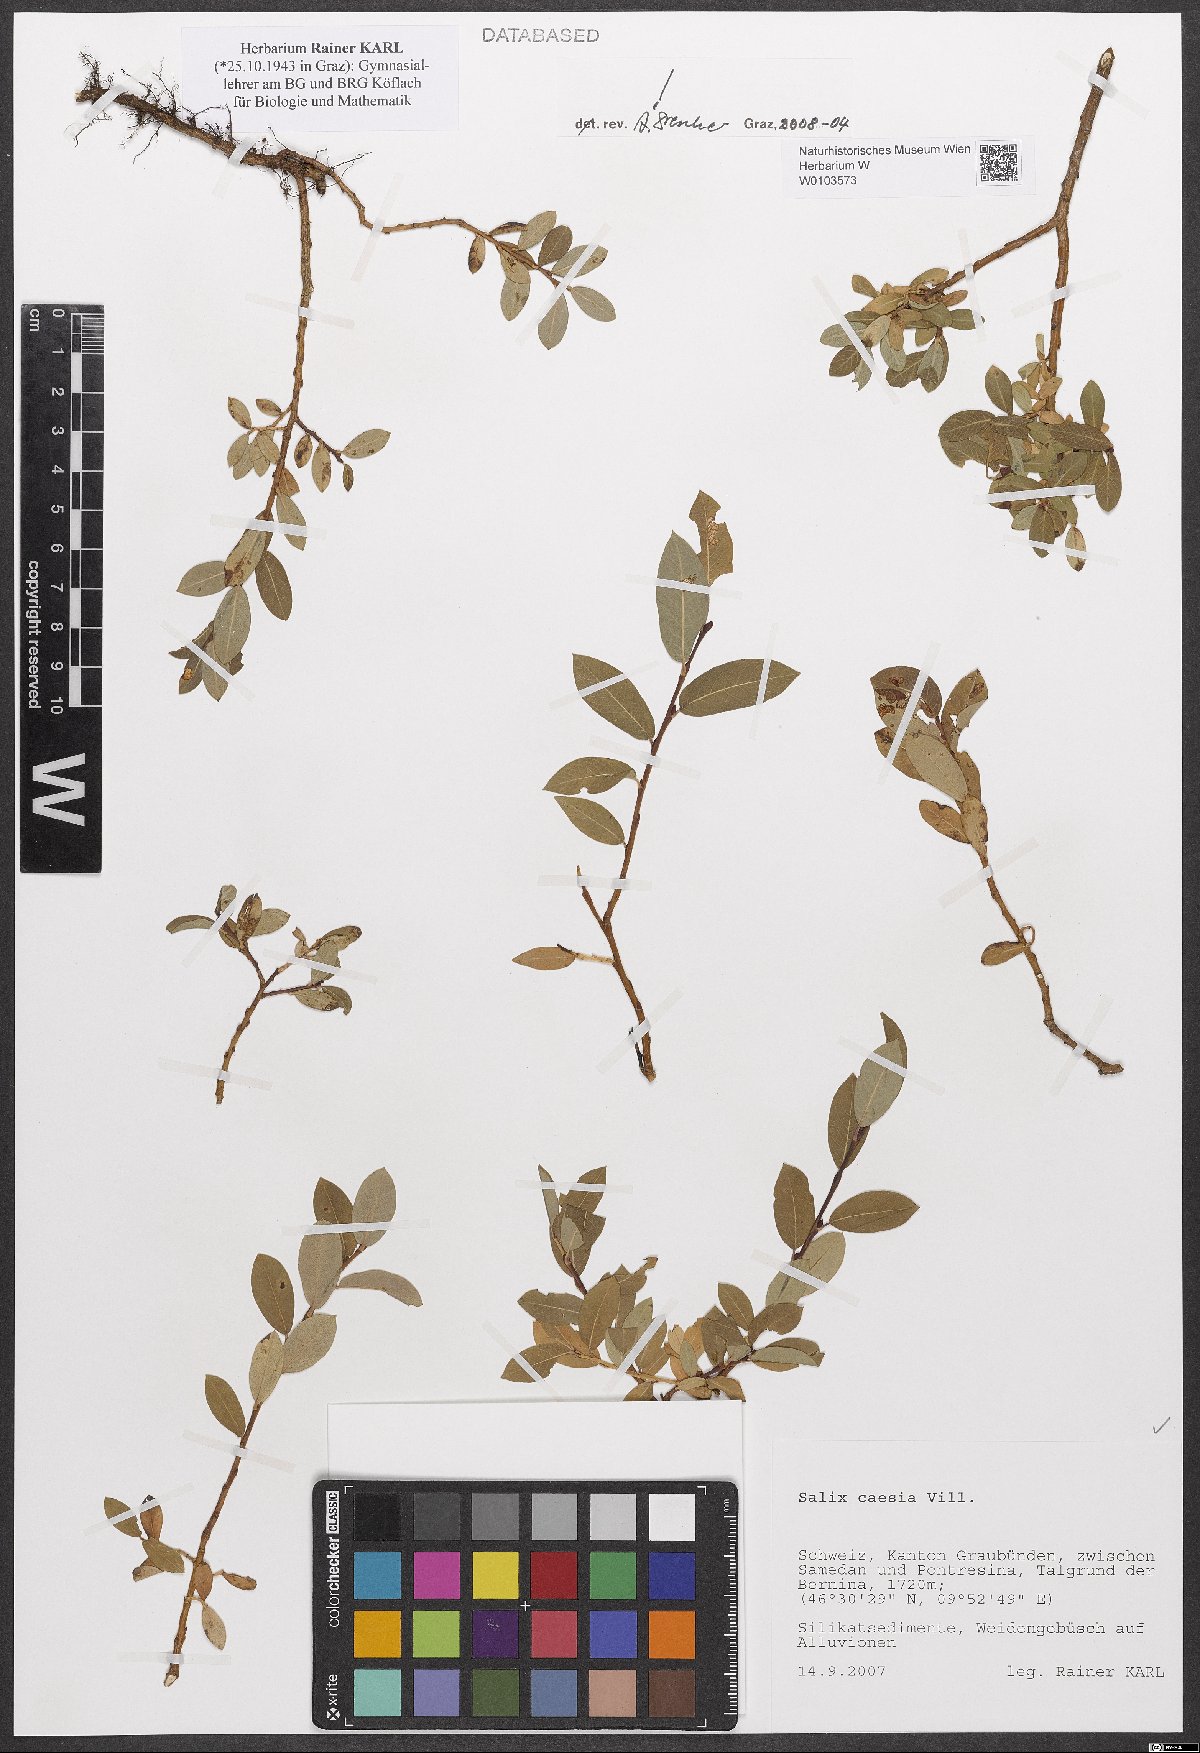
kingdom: Plantae
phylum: Tracheophyta
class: Magnoliopsida
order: Malpighiales
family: Salicaceae
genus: Salix
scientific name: Salix caesia
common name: Blue willow
